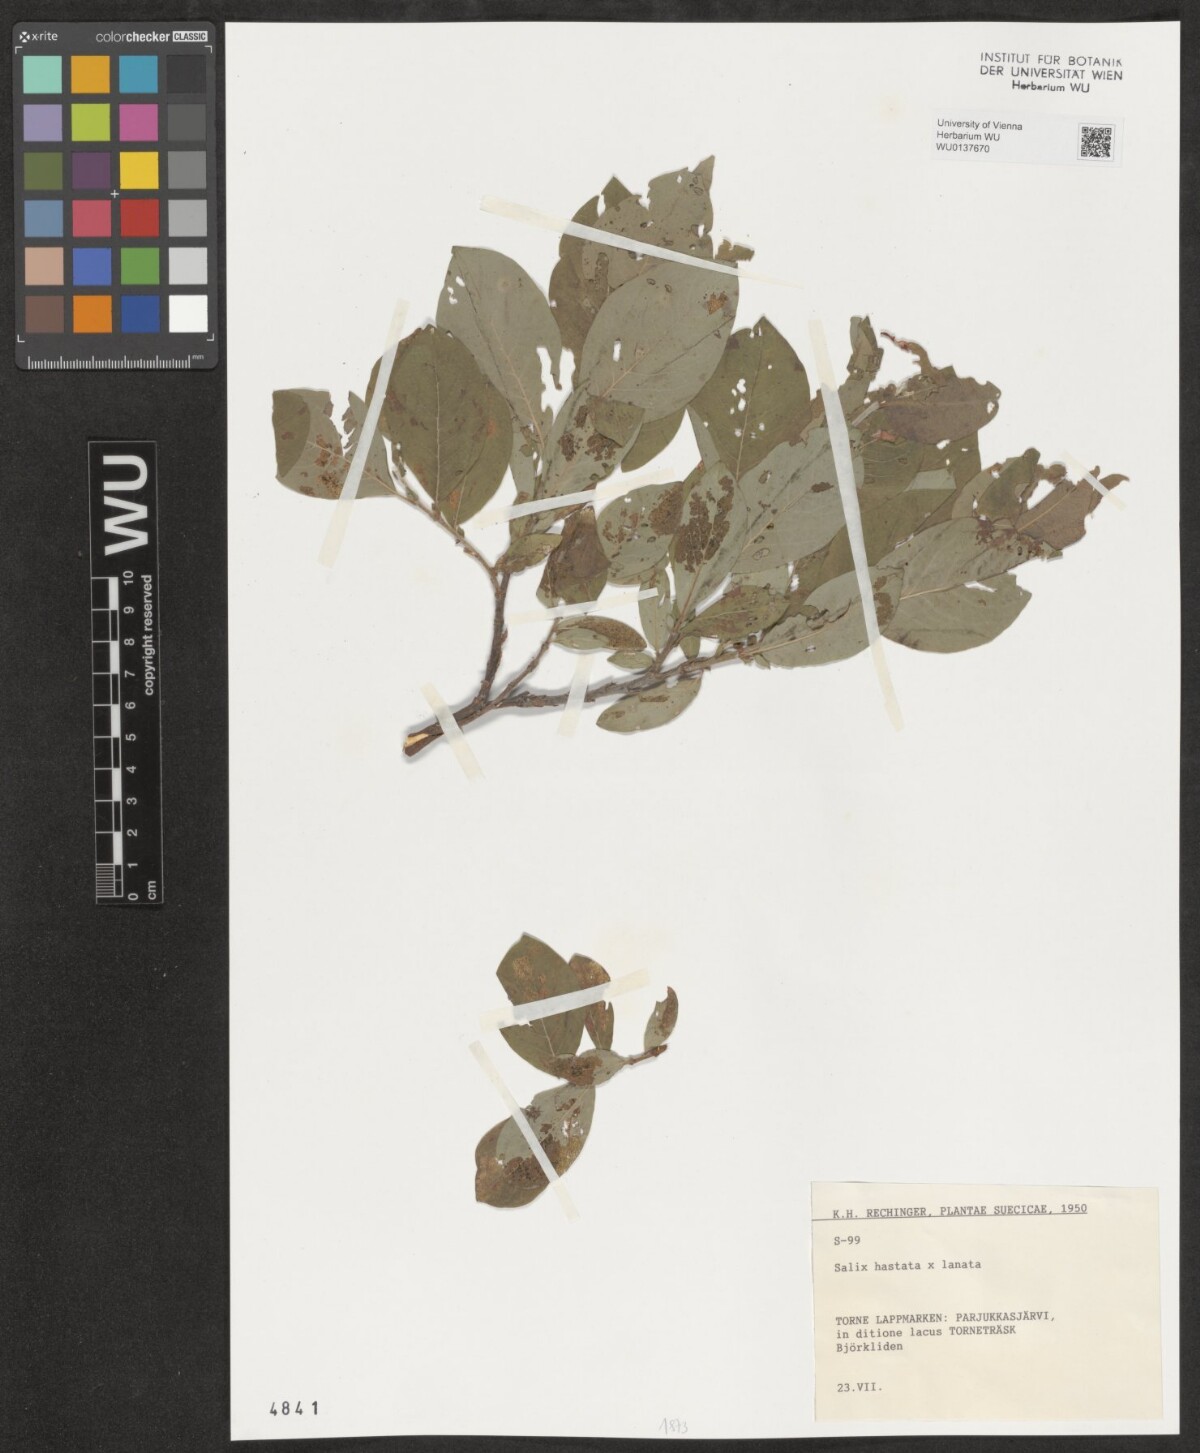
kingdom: Plantae
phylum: Tracheophyta
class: Magnoliopsida
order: Malpighiales
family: Salicaceae
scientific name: Salicaceae
